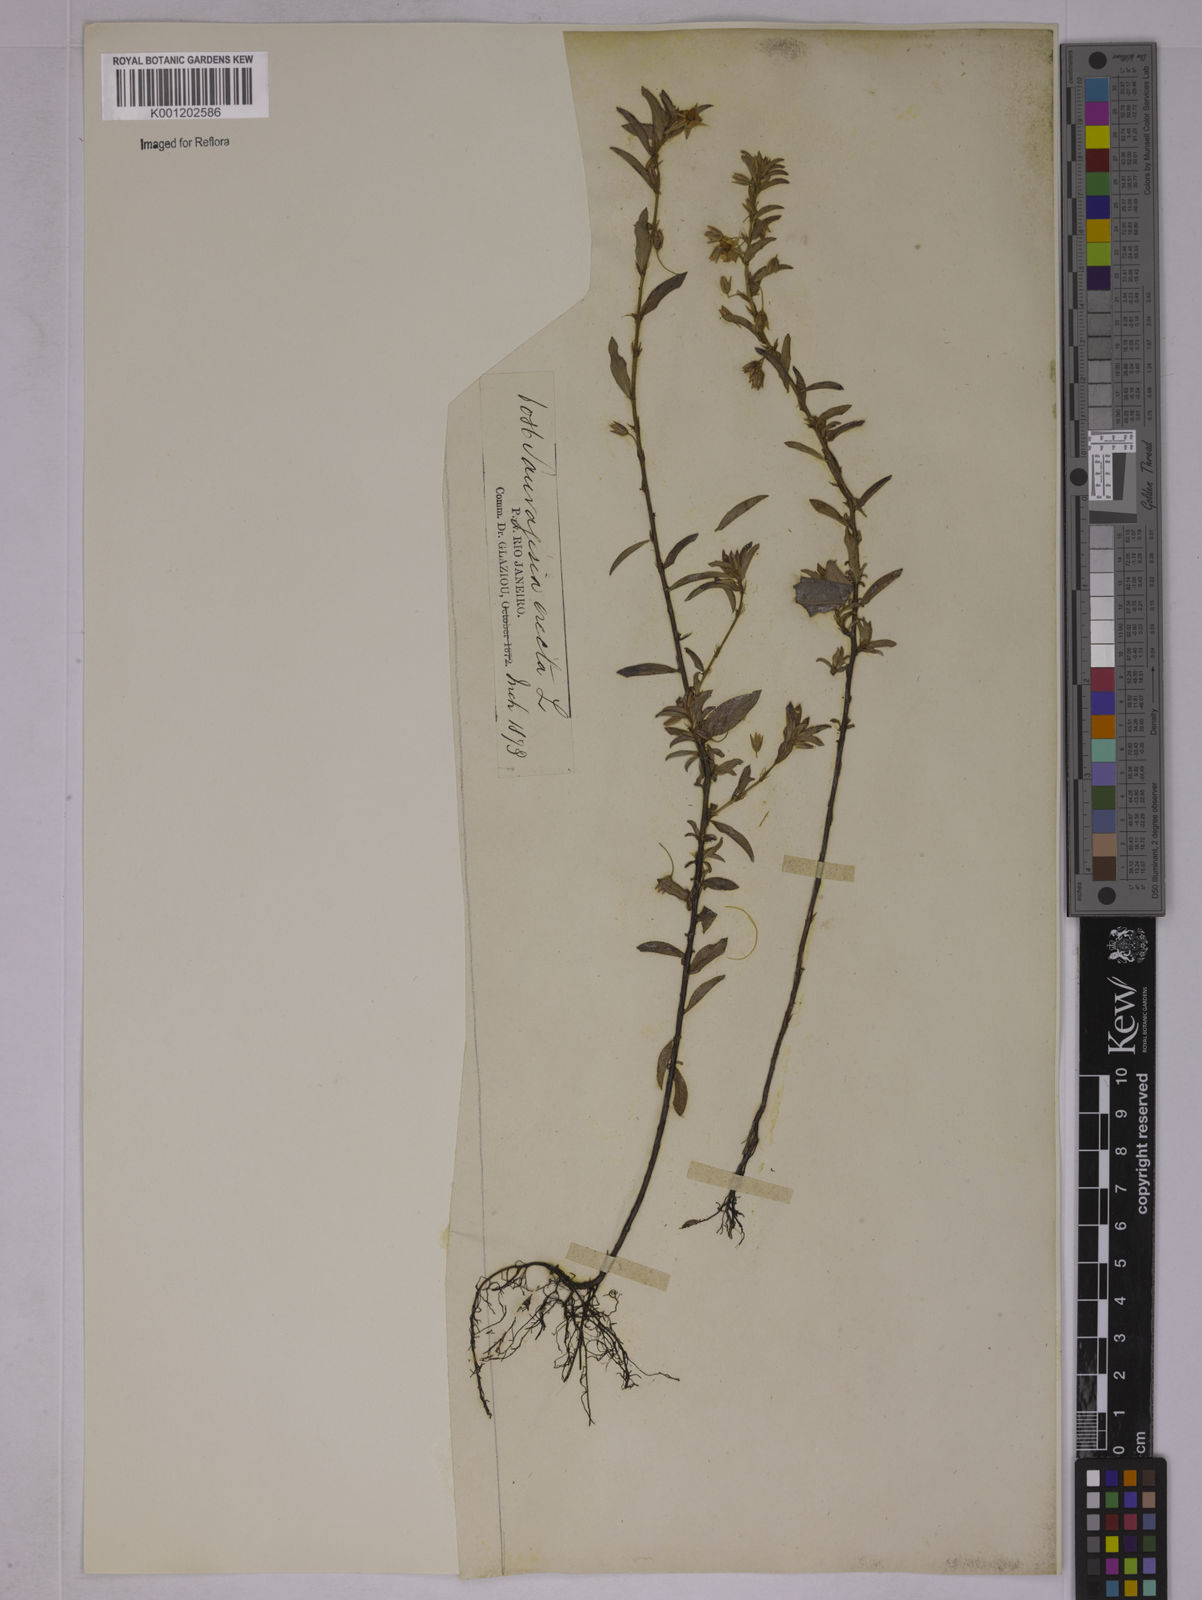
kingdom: Plantae
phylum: Tracheophyta
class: Magnoliopsida
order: Malpighiales
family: Ochnaceae
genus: Sauvagesia
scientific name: Sauvagesia erecta
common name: Creole tea
